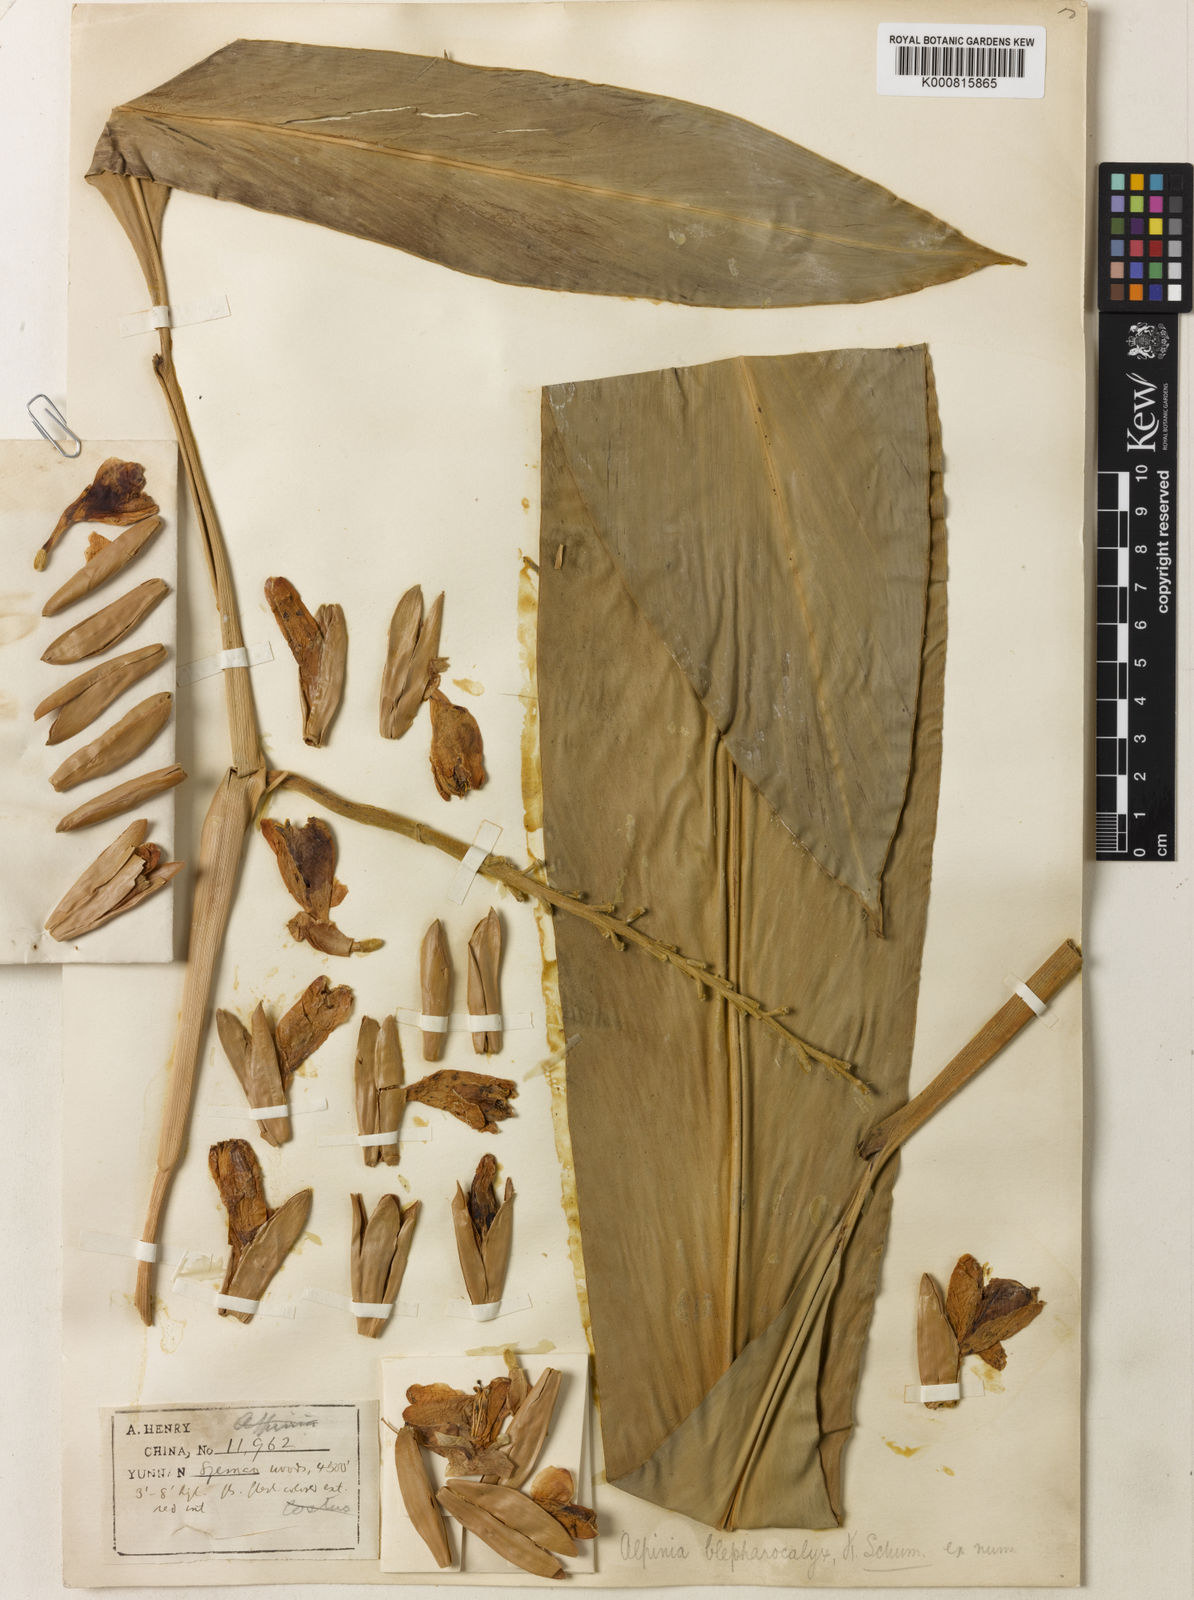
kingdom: Plantae
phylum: Tracheophyta
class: Liliopsida
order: Zingiberales
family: Zingiberaceae
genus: Alpinia
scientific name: Alpinia roxburghii
